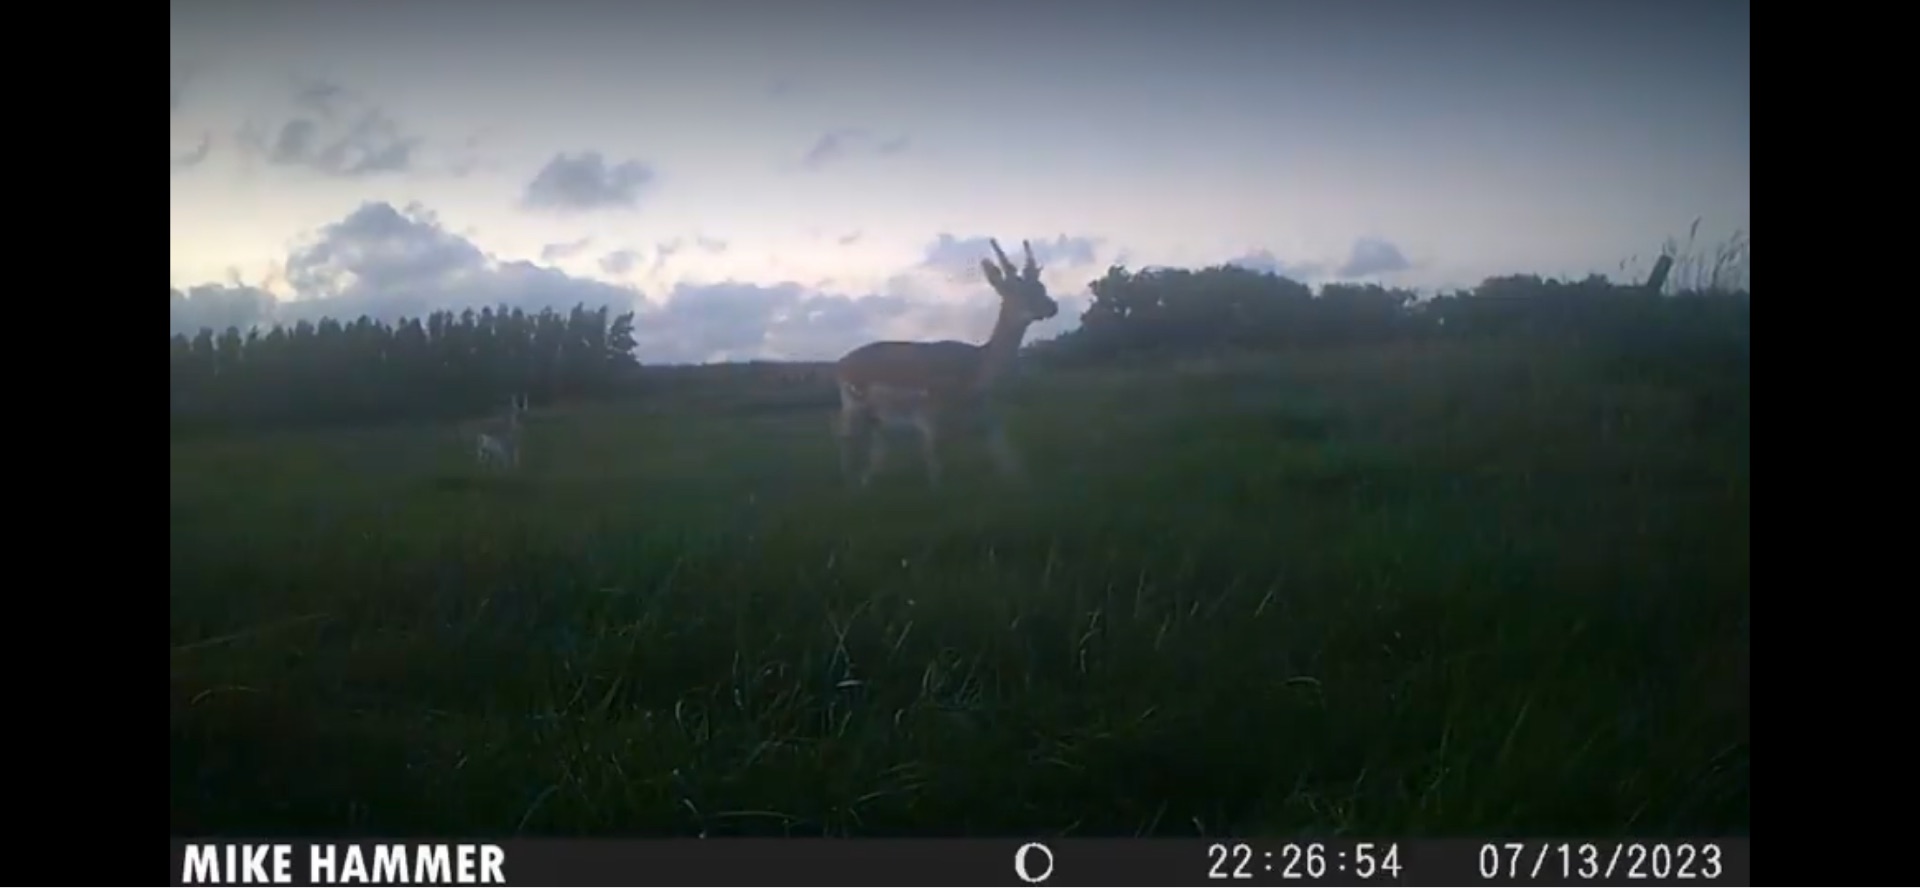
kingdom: Animalia
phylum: Chordata
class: Mammalia
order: Artiodactyla
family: Cervidae
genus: Dama
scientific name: Dama dama
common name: Dådyr
